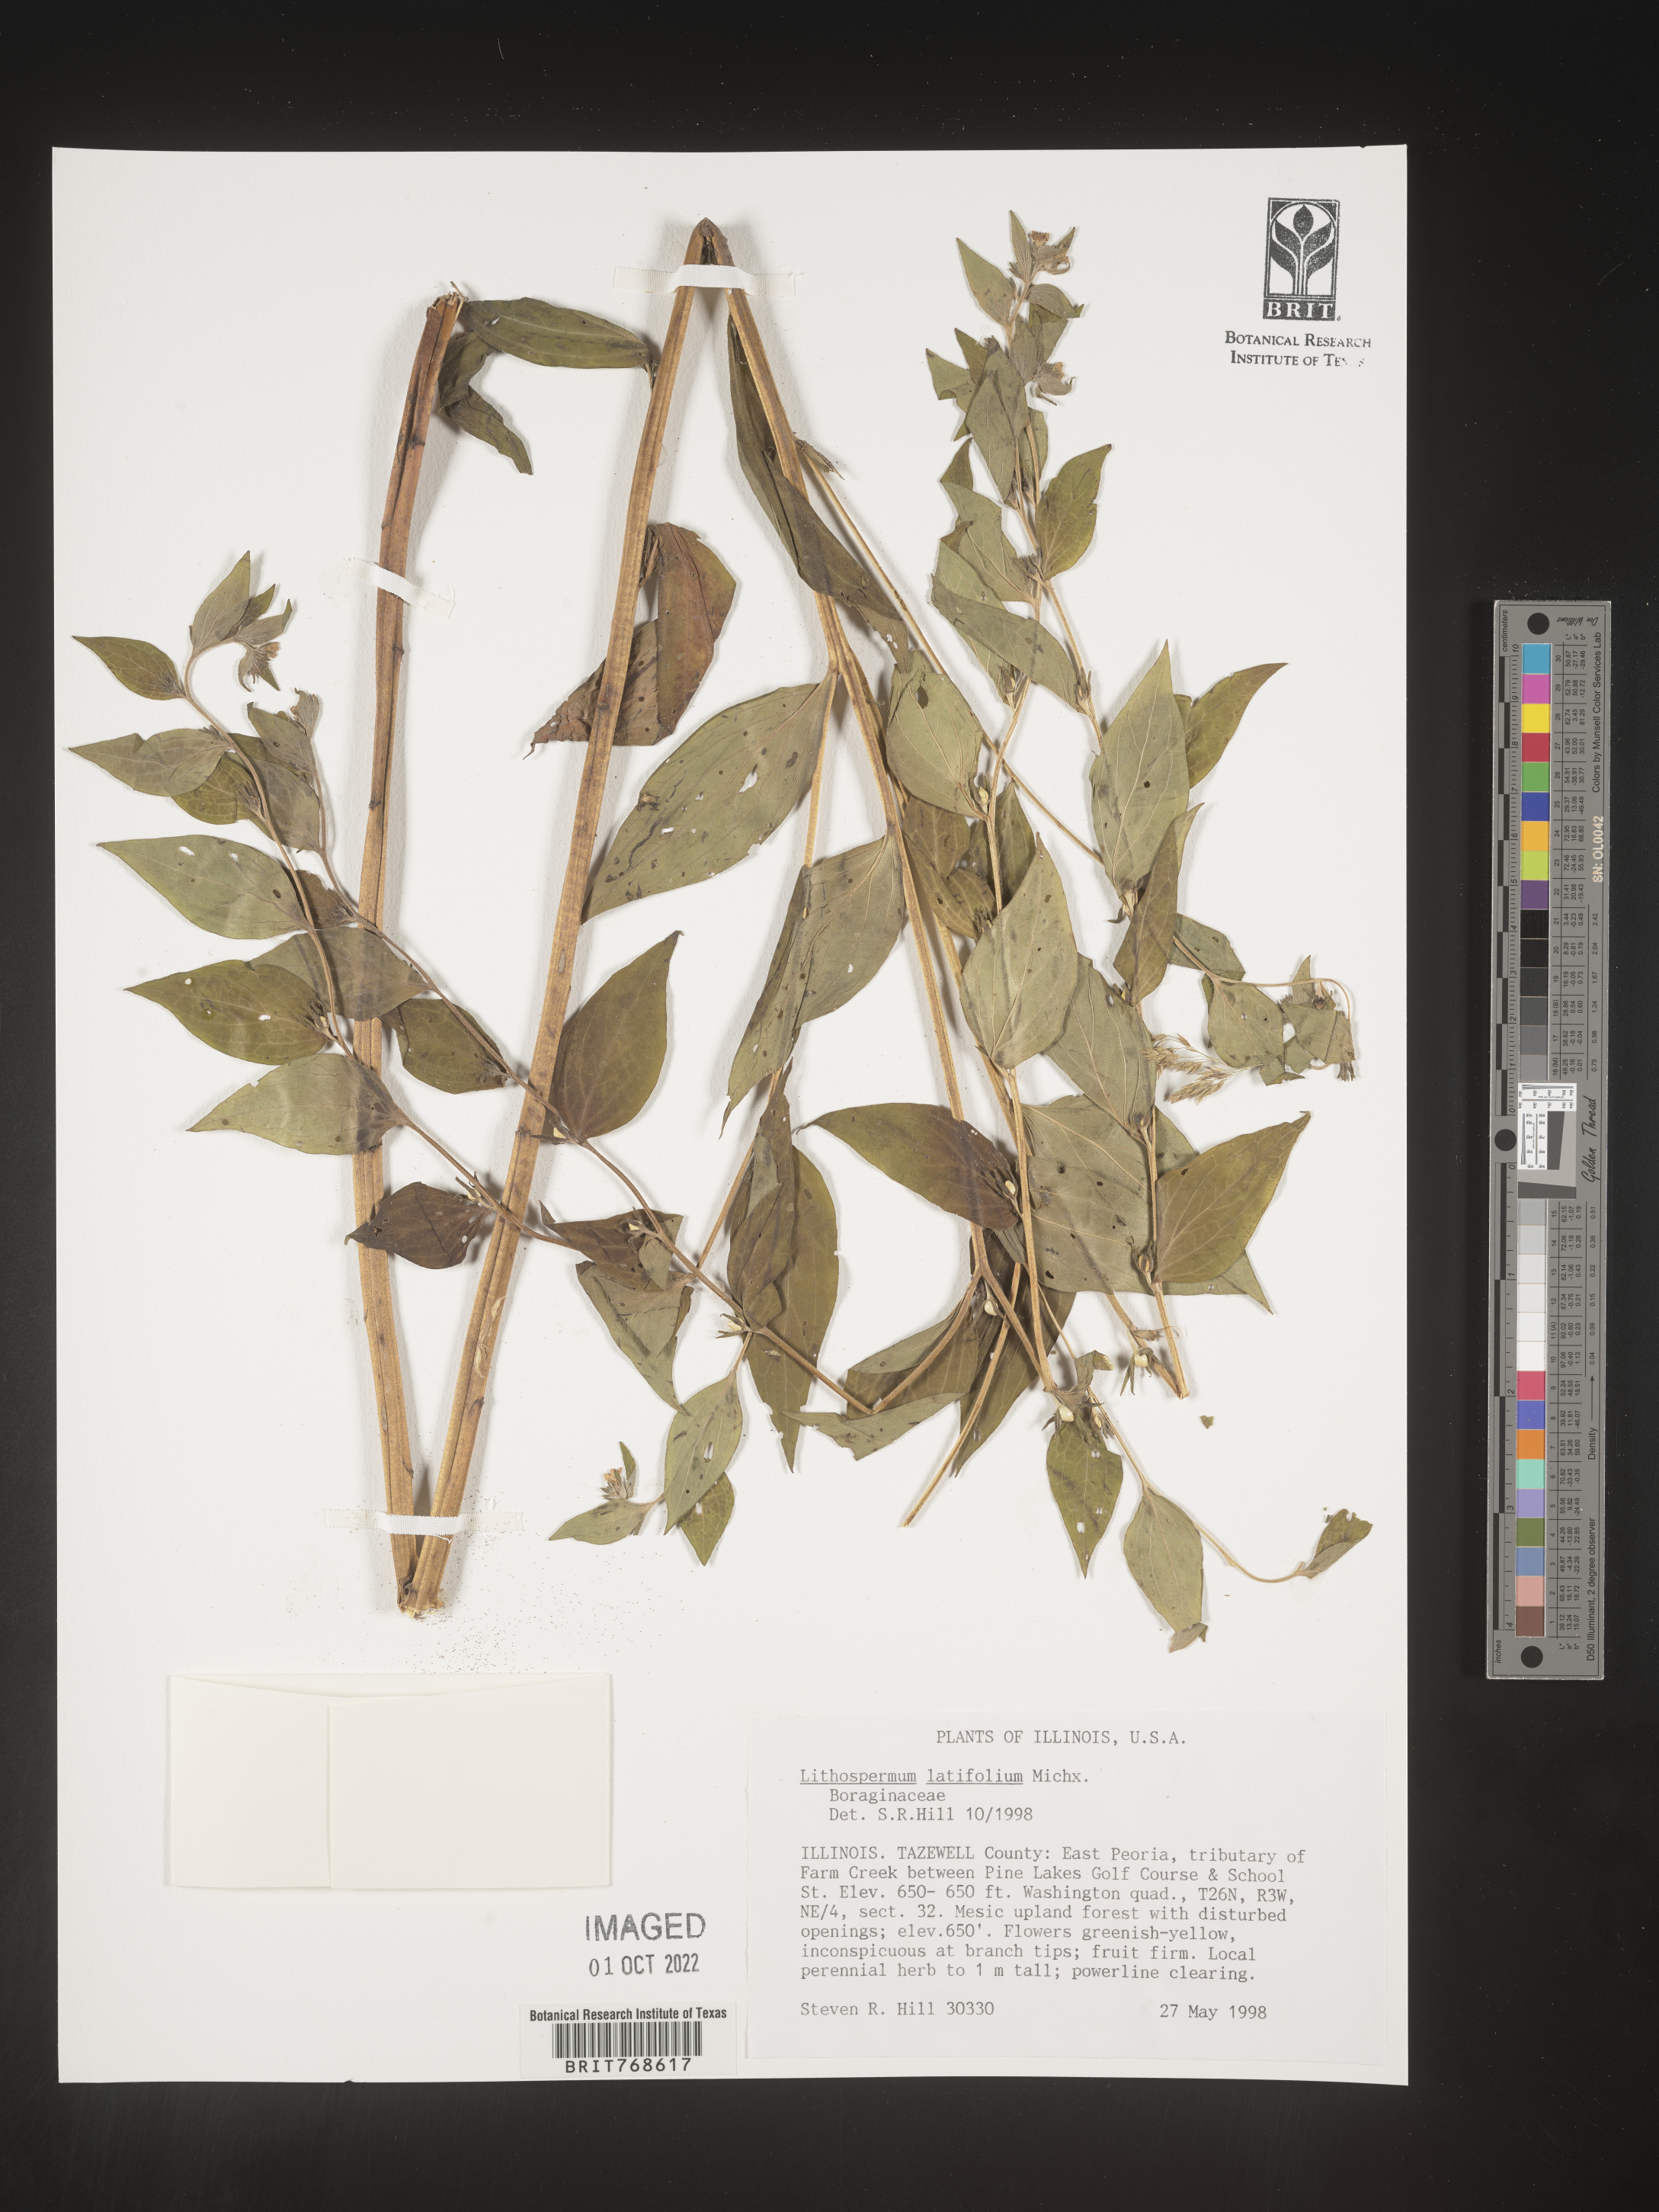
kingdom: Plantae
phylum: Tracheophyta
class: Magnoliopsida
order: Boraginales
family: Boraginaceae
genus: Lithospermum
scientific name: Lithospermum
